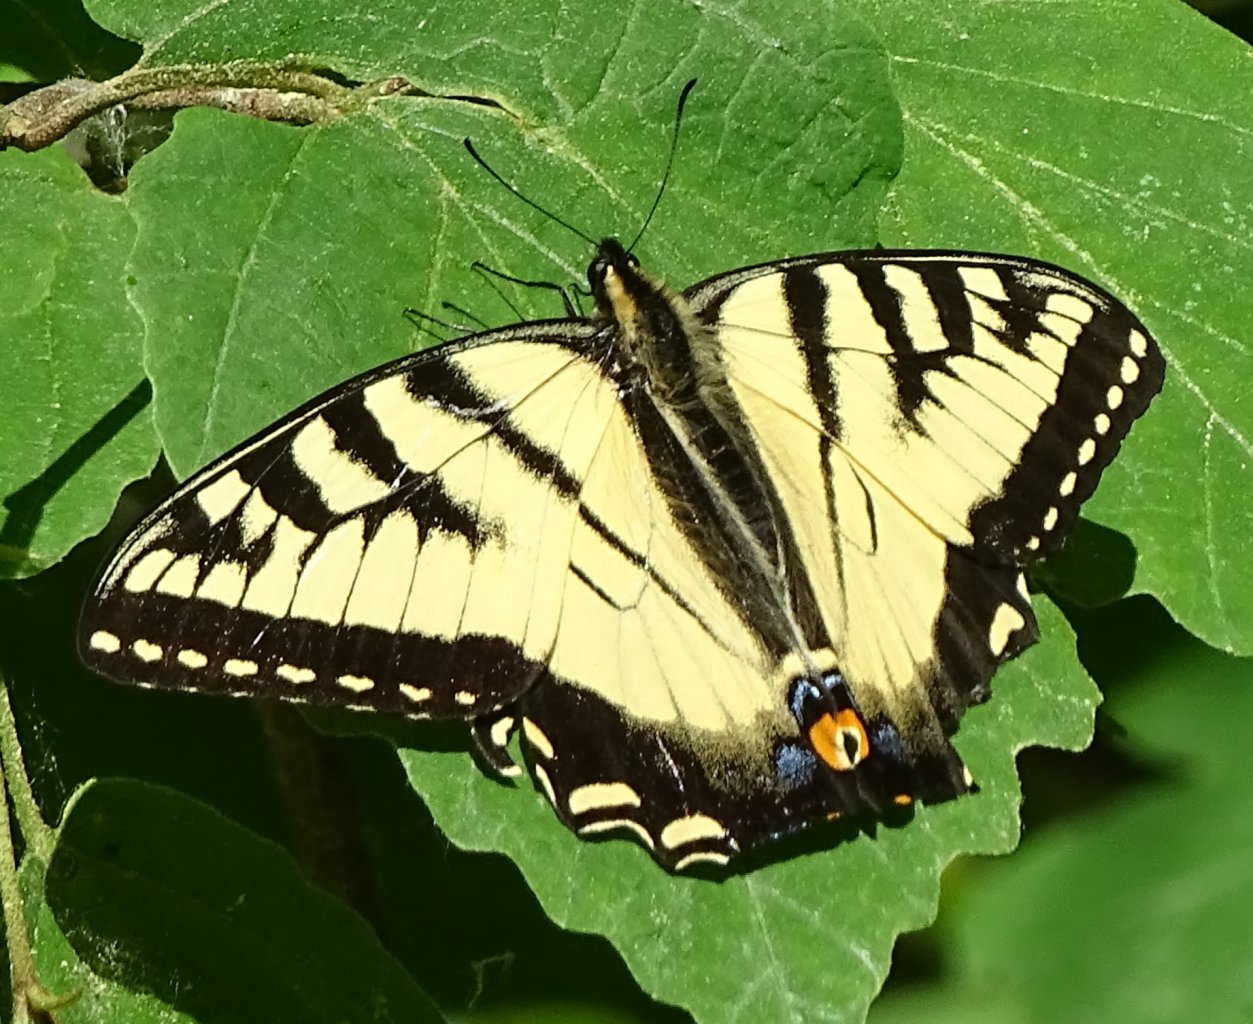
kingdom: Animalia
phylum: Arthropoda
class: Insecta
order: Lepidoptera
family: Papilionidae
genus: Papilio
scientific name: Papilio
